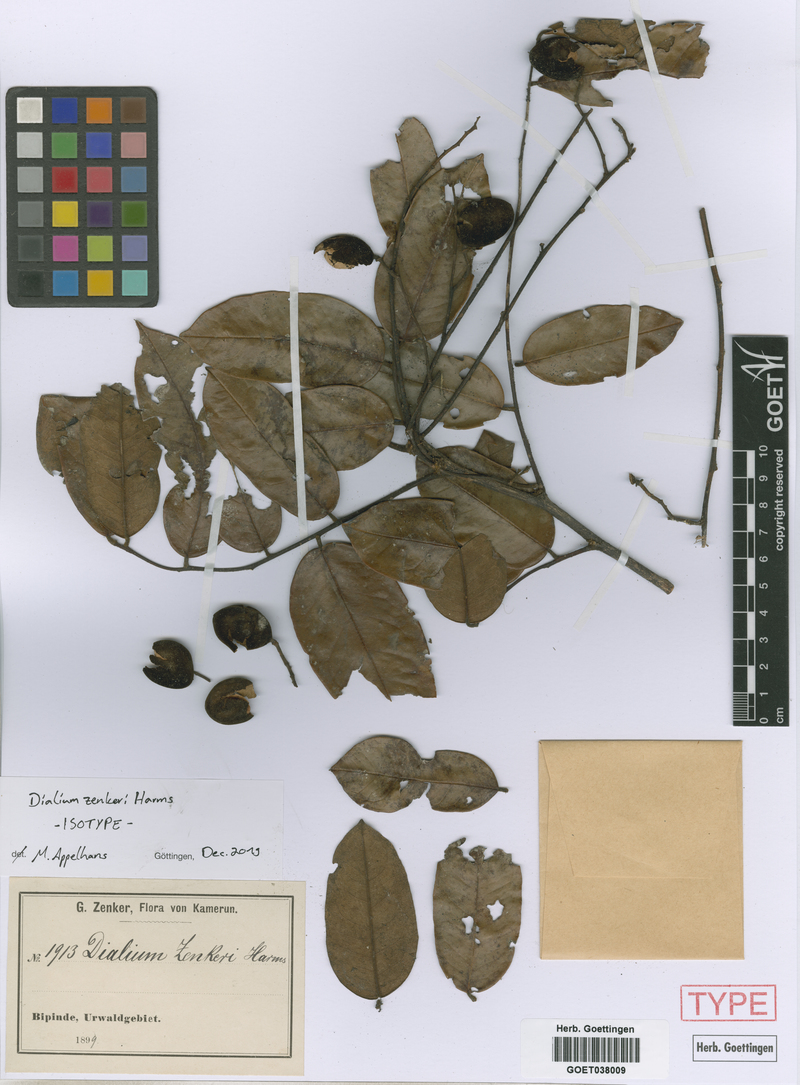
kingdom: Plantae
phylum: Tracheophyta
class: Magnoliopsida
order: Fabales
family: Fabaceae
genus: Dialium
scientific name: Dialium zenkeri
